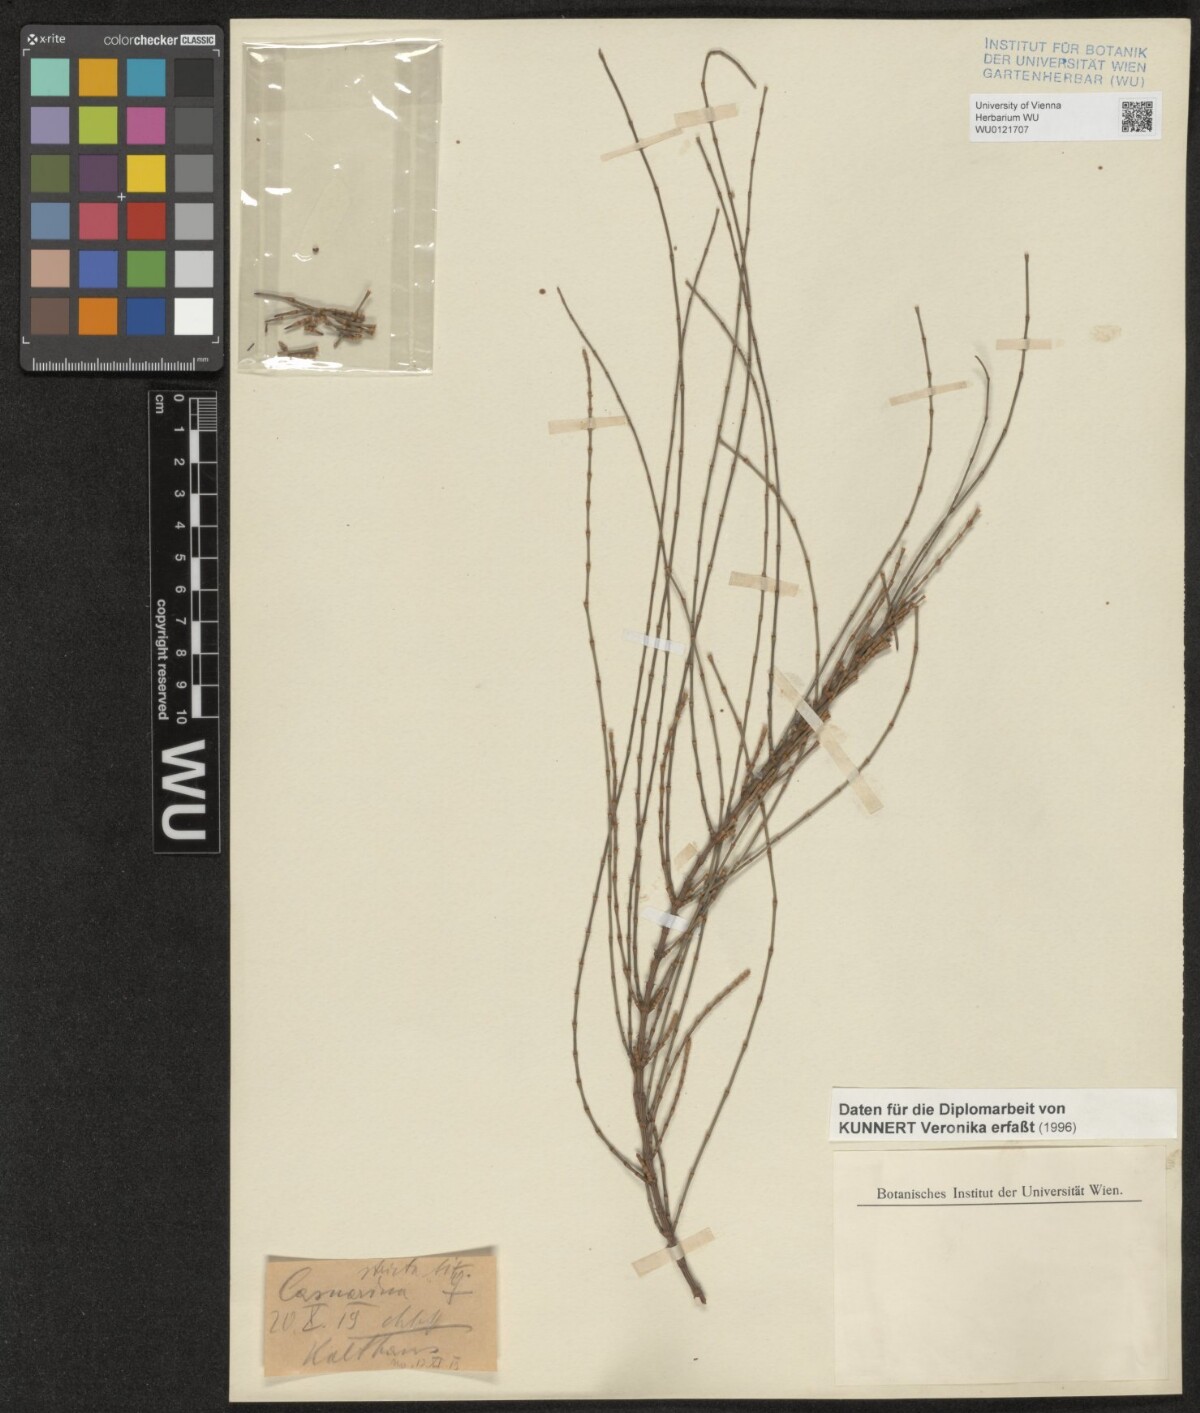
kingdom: Plantae
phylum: Tracheophyta
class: Magnoliopsida
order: Fagales
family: Casuarinaceae
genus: Casuarina
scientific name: Casuarina stricta
